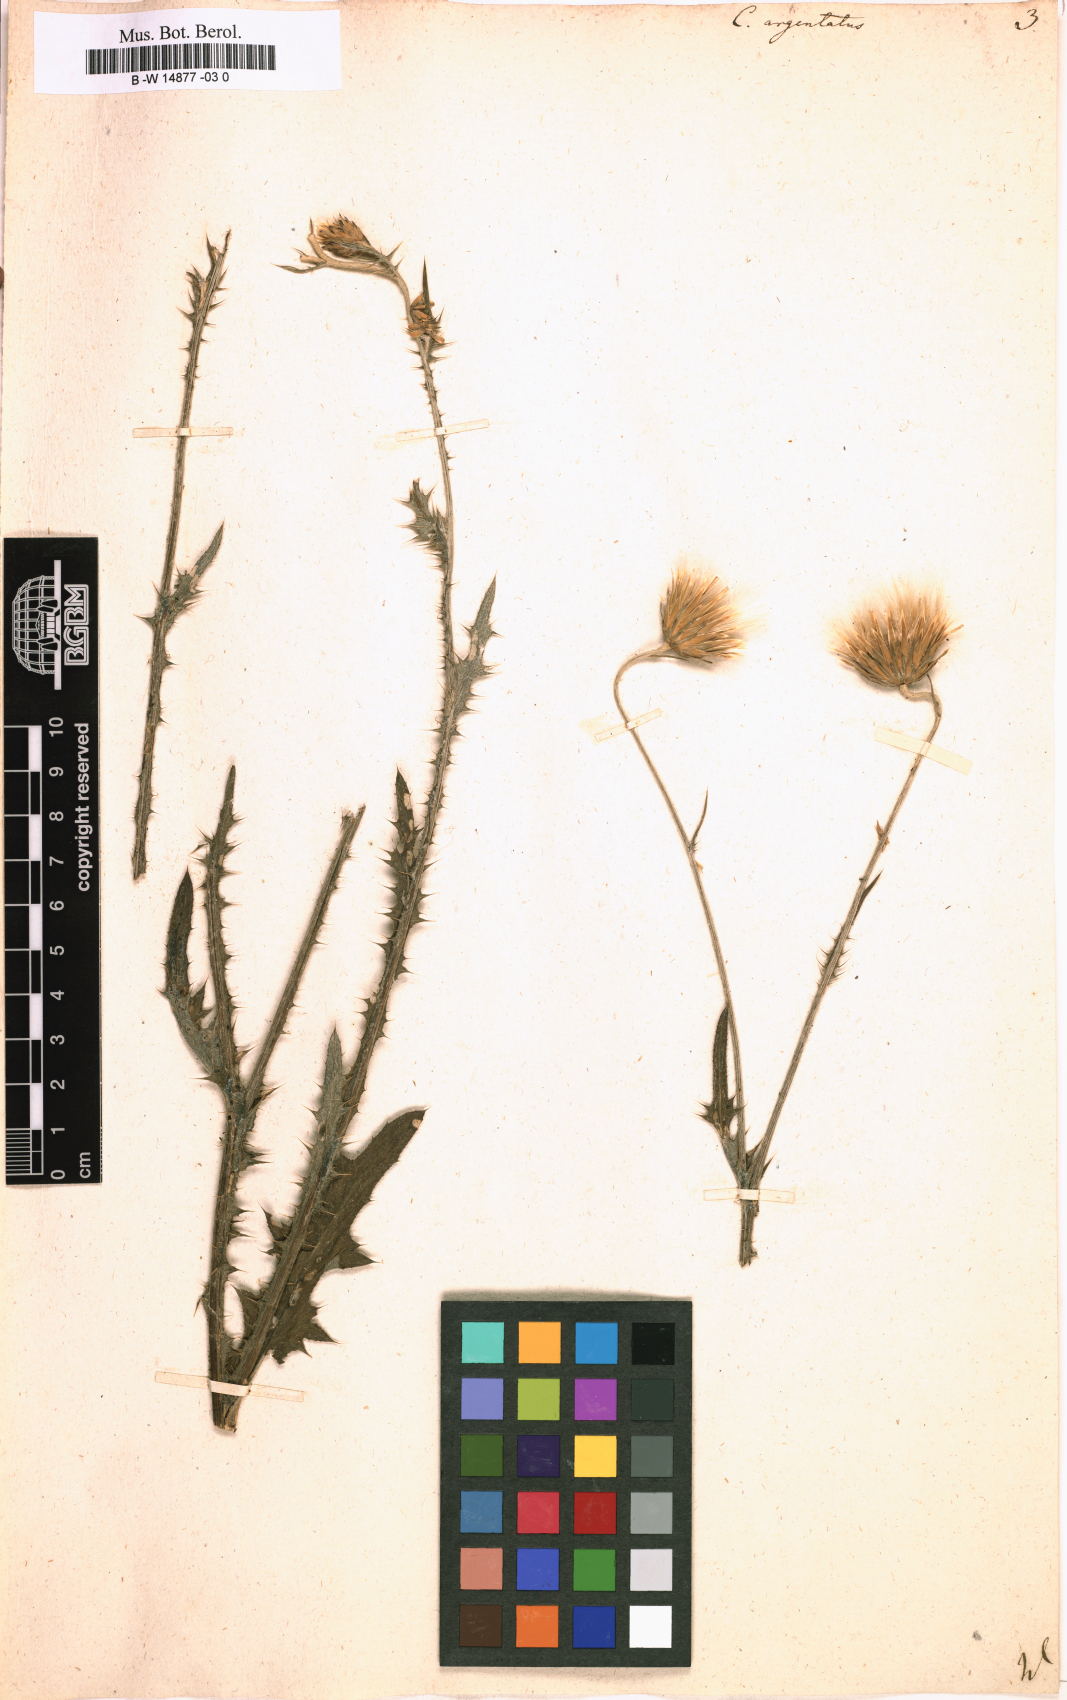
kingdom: Plantae
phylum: Tracheophyta
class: Magnoliopsida
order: Asterales
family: Asteraceae
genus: Carduus
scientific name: Carduus argentatus
